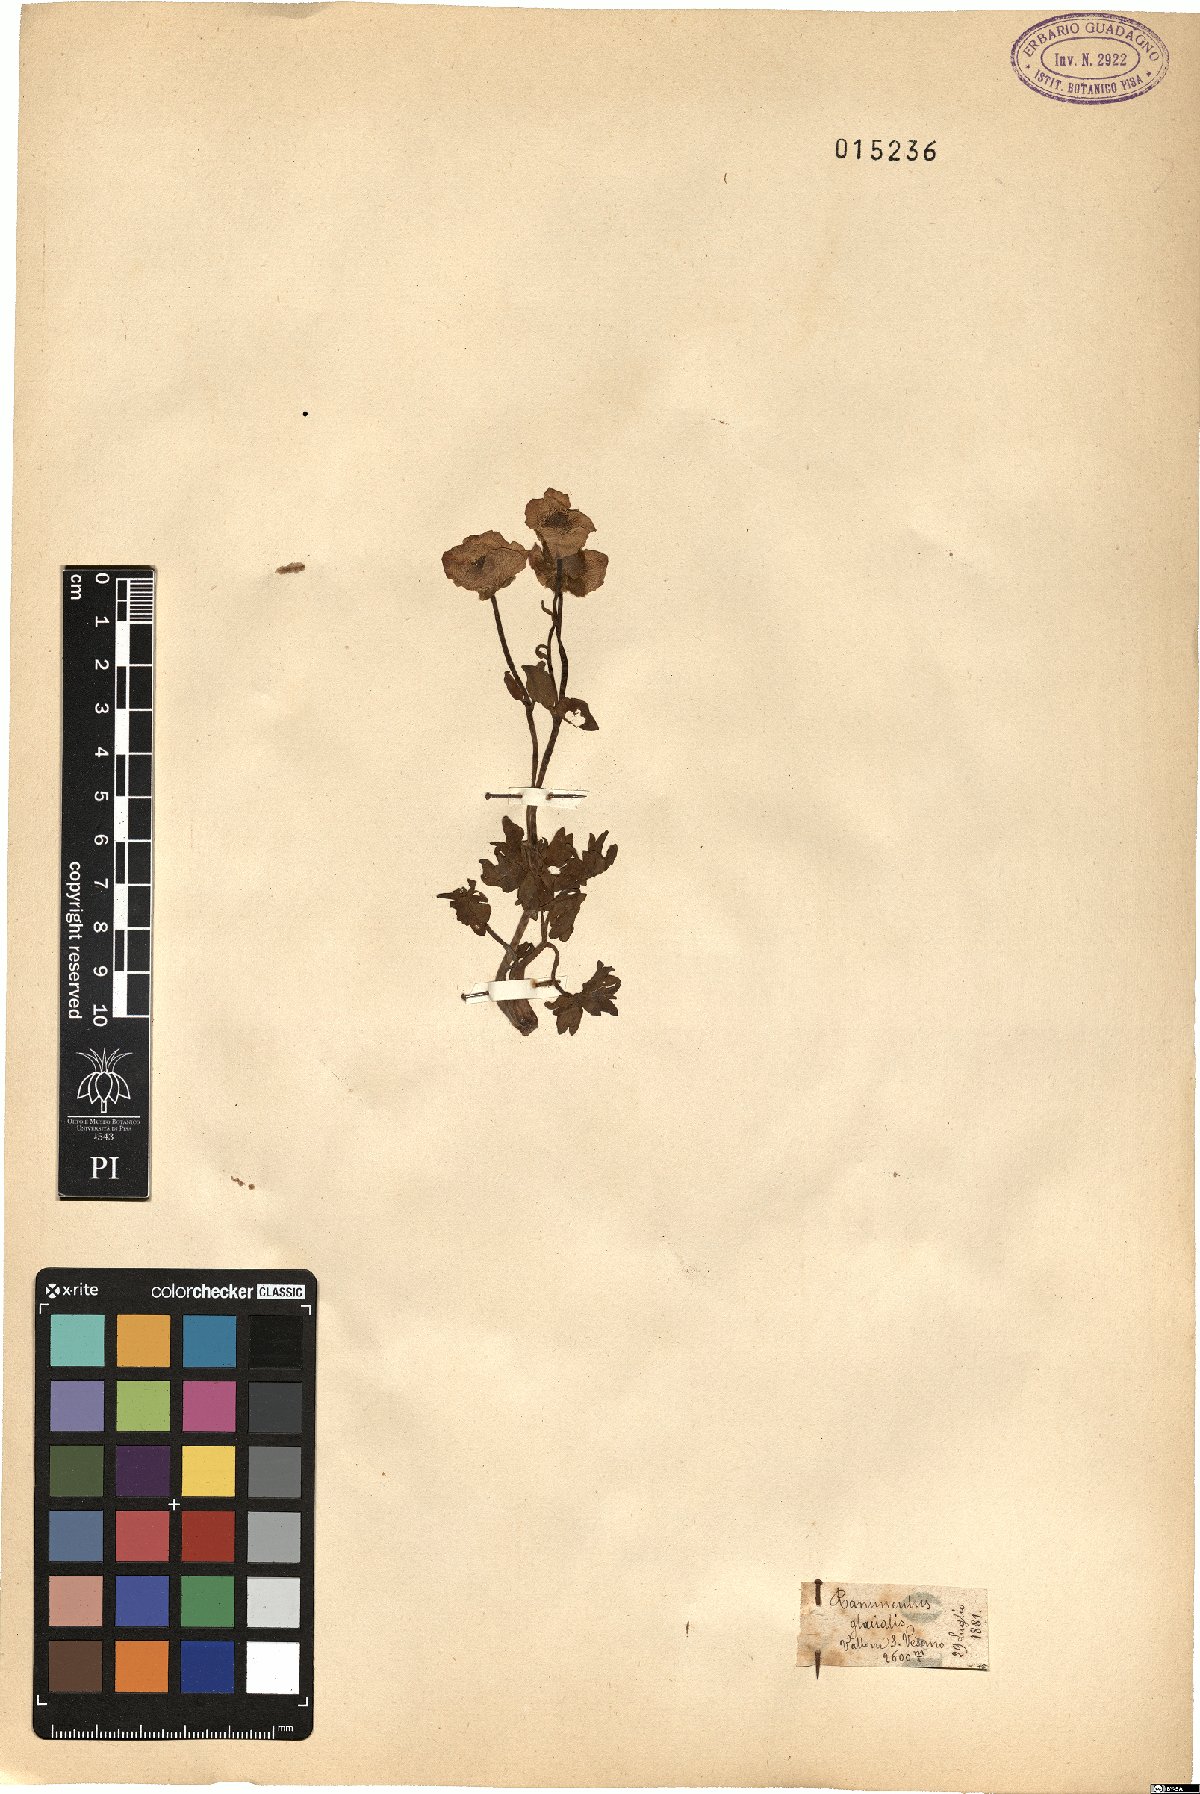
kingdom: Plantae
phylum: Tracheophyta
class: Magnoliopsida
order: Ranunculales
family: Ranunculaceae
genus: Ranunculus
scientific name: Ranunculus glacialis
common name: Glacier buttercup
